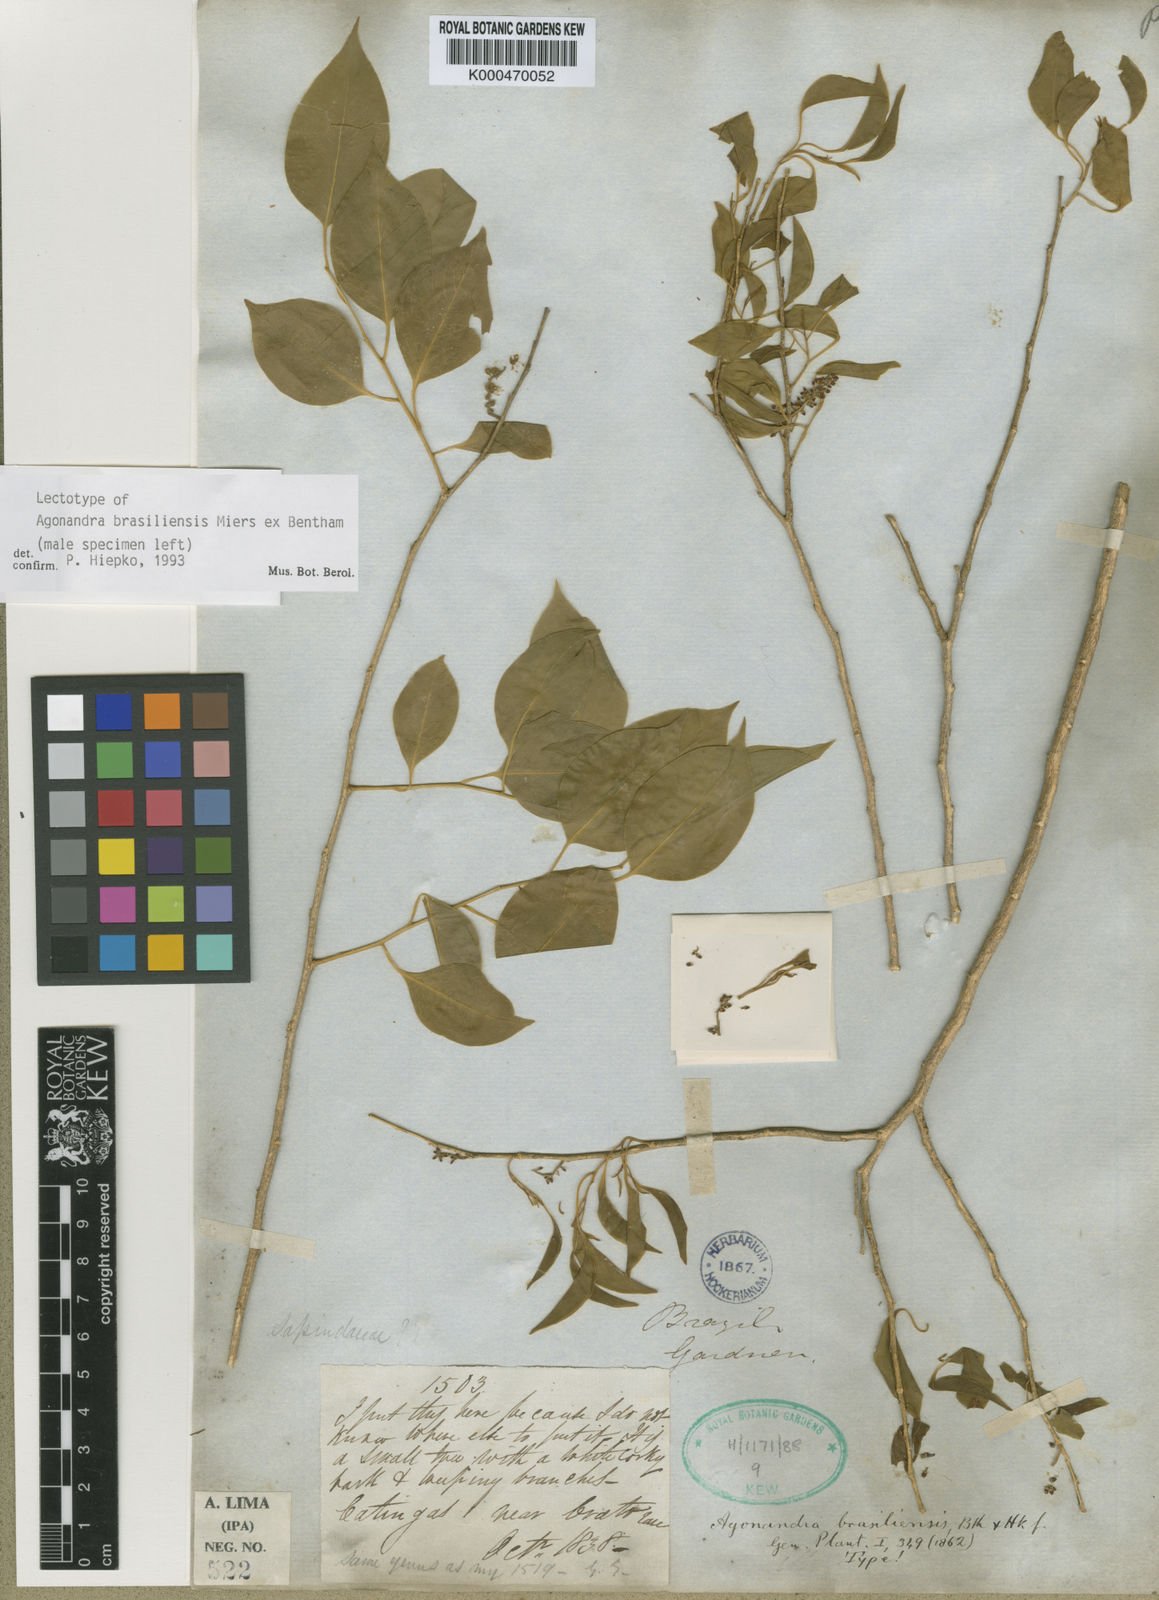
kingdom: Plantae
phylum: Tracheophyta
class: Magnoliopsida
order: Santalales
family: Opiliaceae
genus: Agonandra
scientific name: Agonandra brasiliensis
